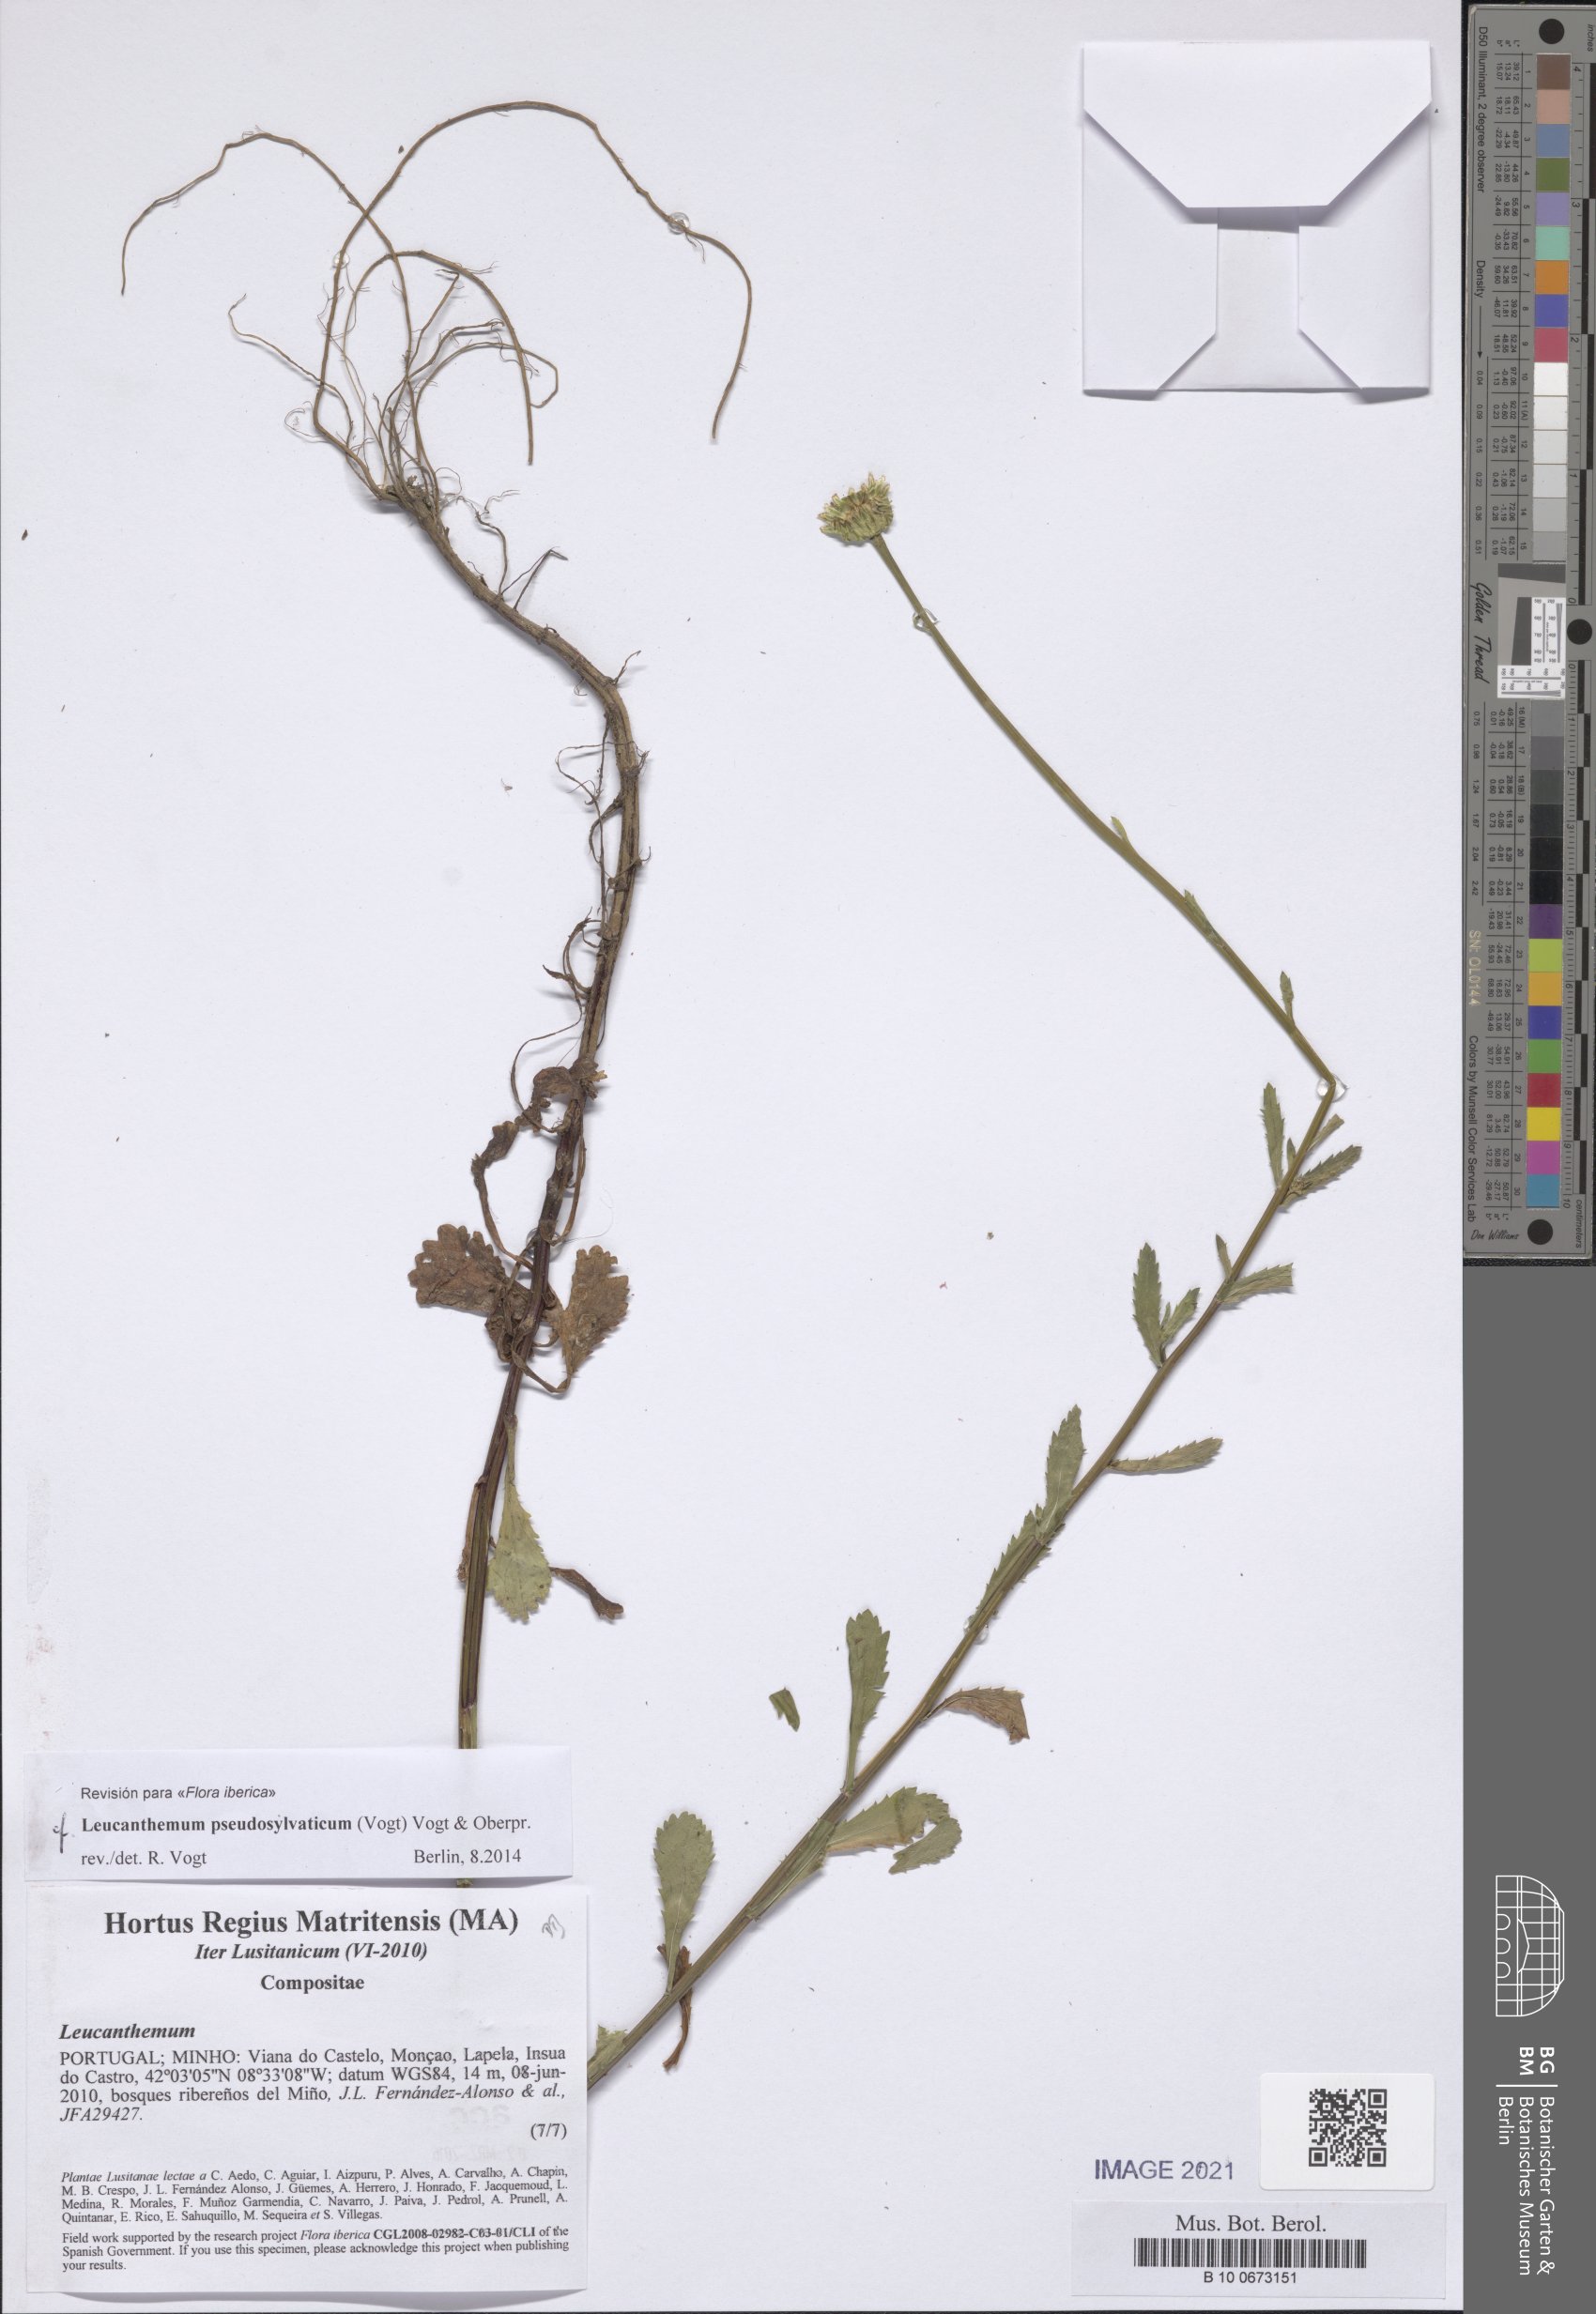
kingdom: Plantae
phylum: Tracheophyta
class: Magnoliopsida
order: Asterales
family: Asteraceae
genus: Leucanthemum
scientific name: Leucanthemum pseudosylvaticum
